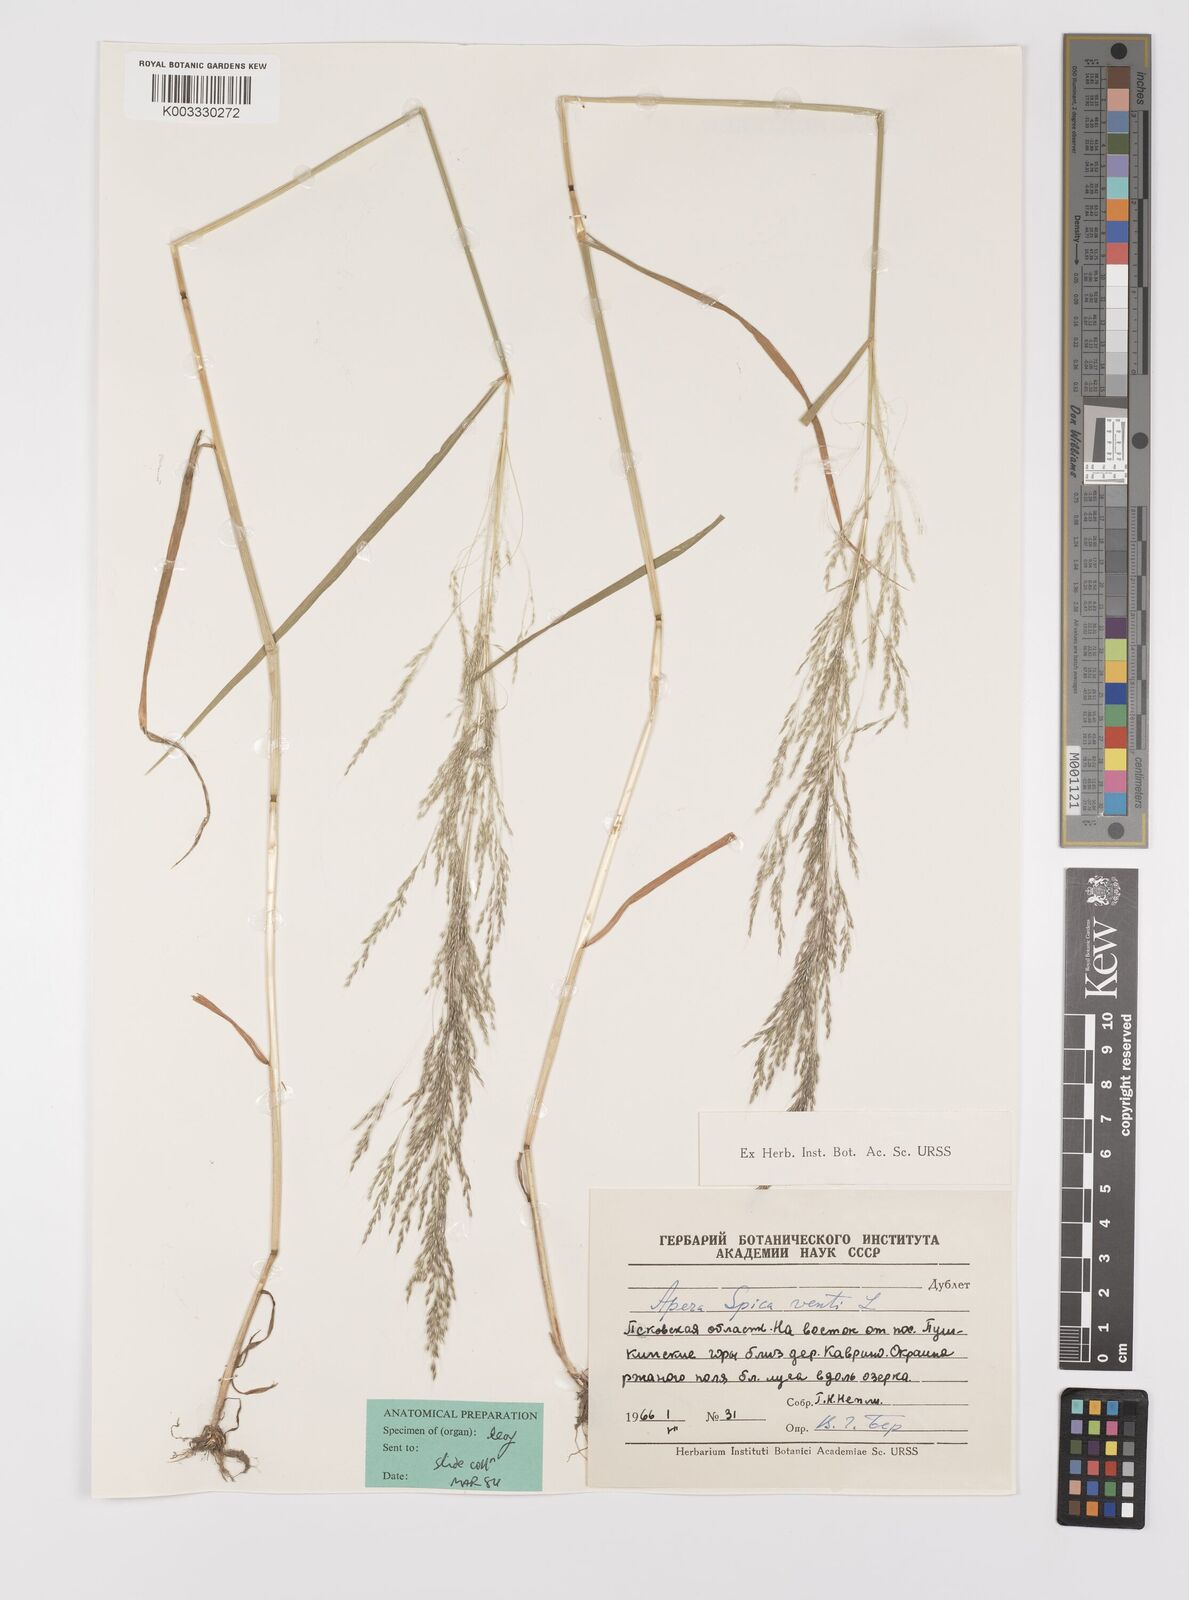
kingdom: Plantae
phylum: Tracheophyta
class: Liliopsida
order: Poales
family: Poaceae
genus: Apera
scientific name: Apera spica-venti
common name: Loose silky-bent
